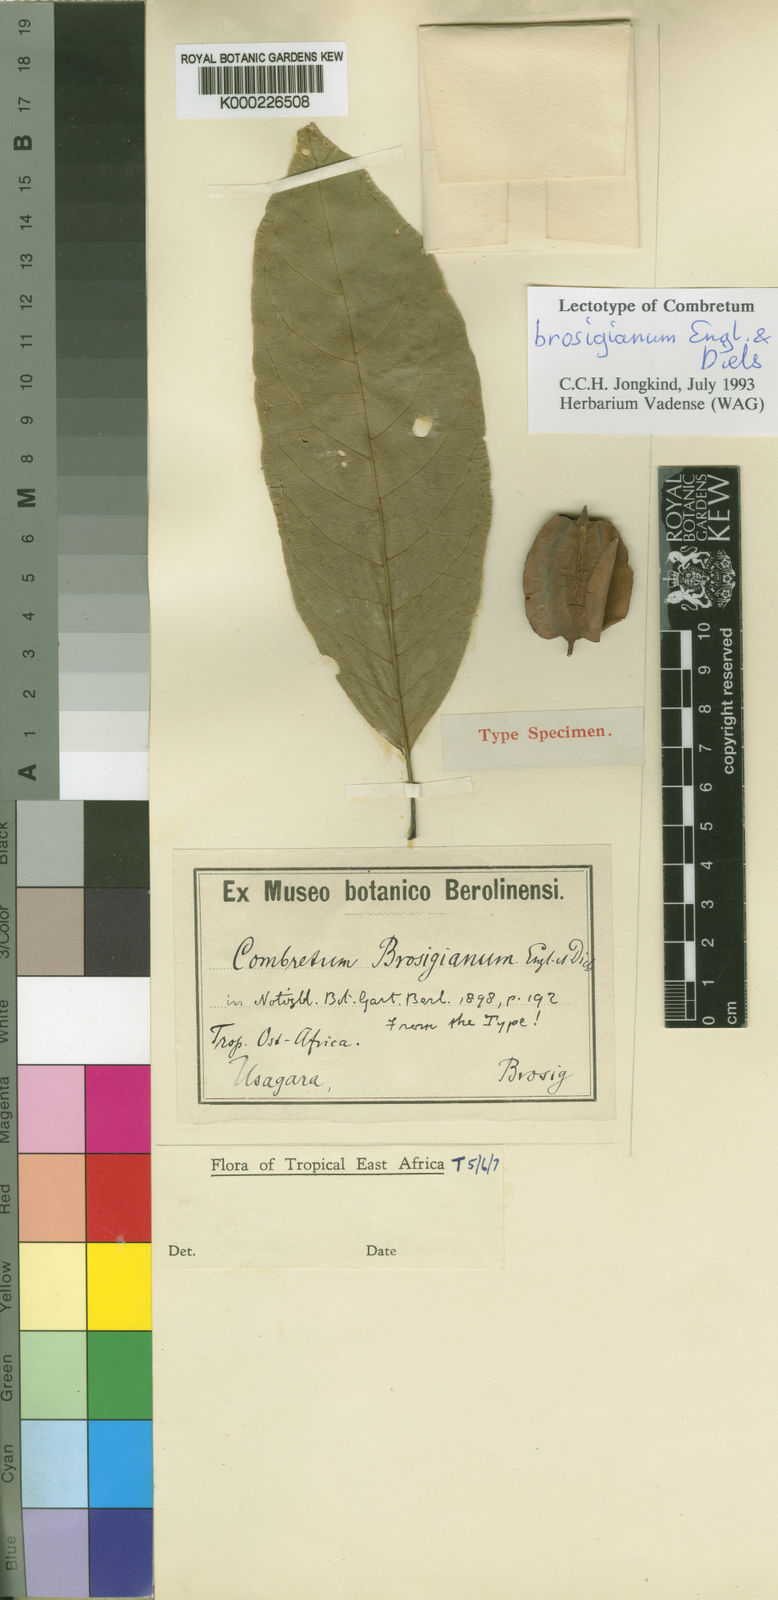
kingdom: Plantae
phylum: Tracheophyta
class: Magnoliopsida
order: Myrtales
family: Combretaceae
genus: Combretum
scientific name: Combretum collinum
